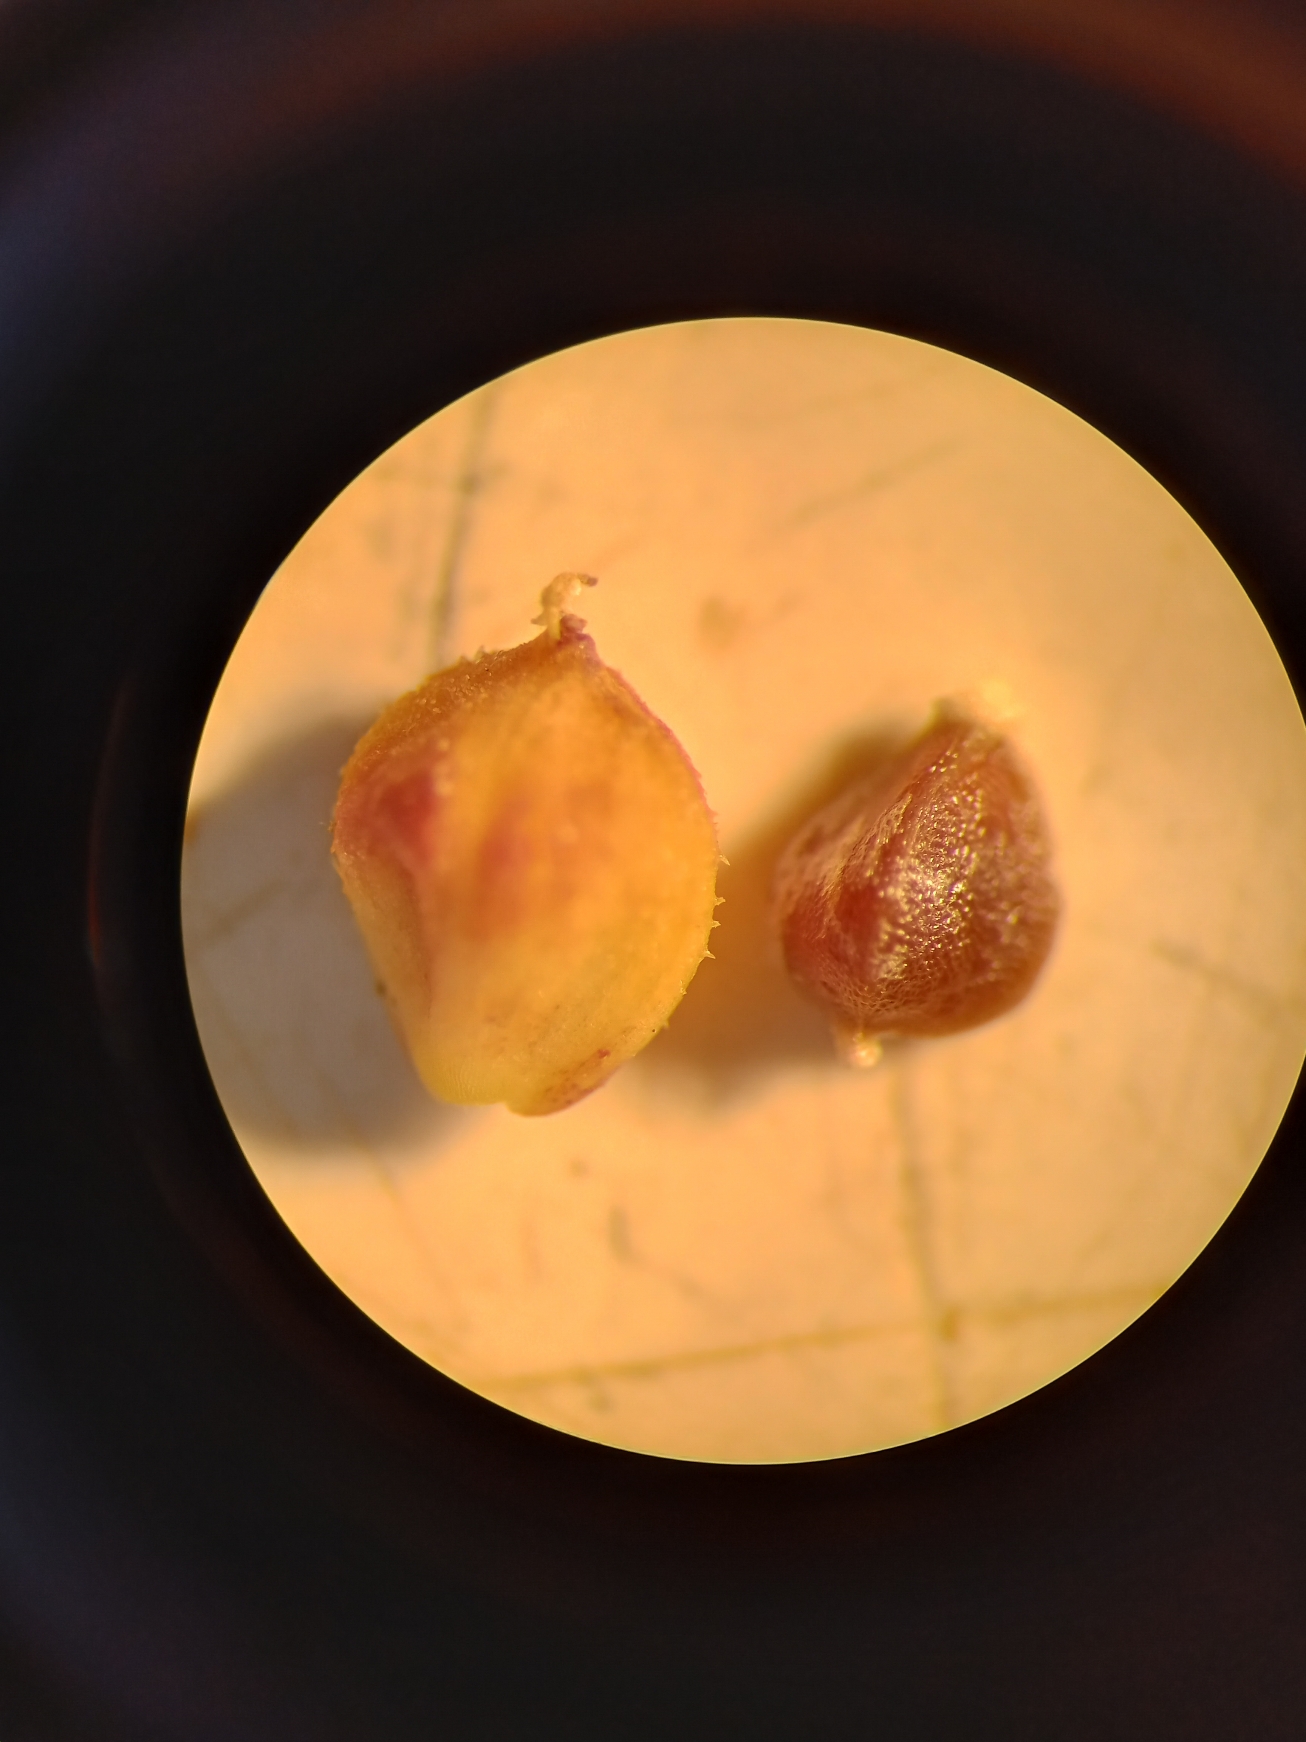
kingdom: Plantae
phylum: Tracheophyta
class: Liliopsida
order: Poales
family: Cyperaceae
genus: Carex
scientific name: Carex flacca
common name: Blågrøn star
